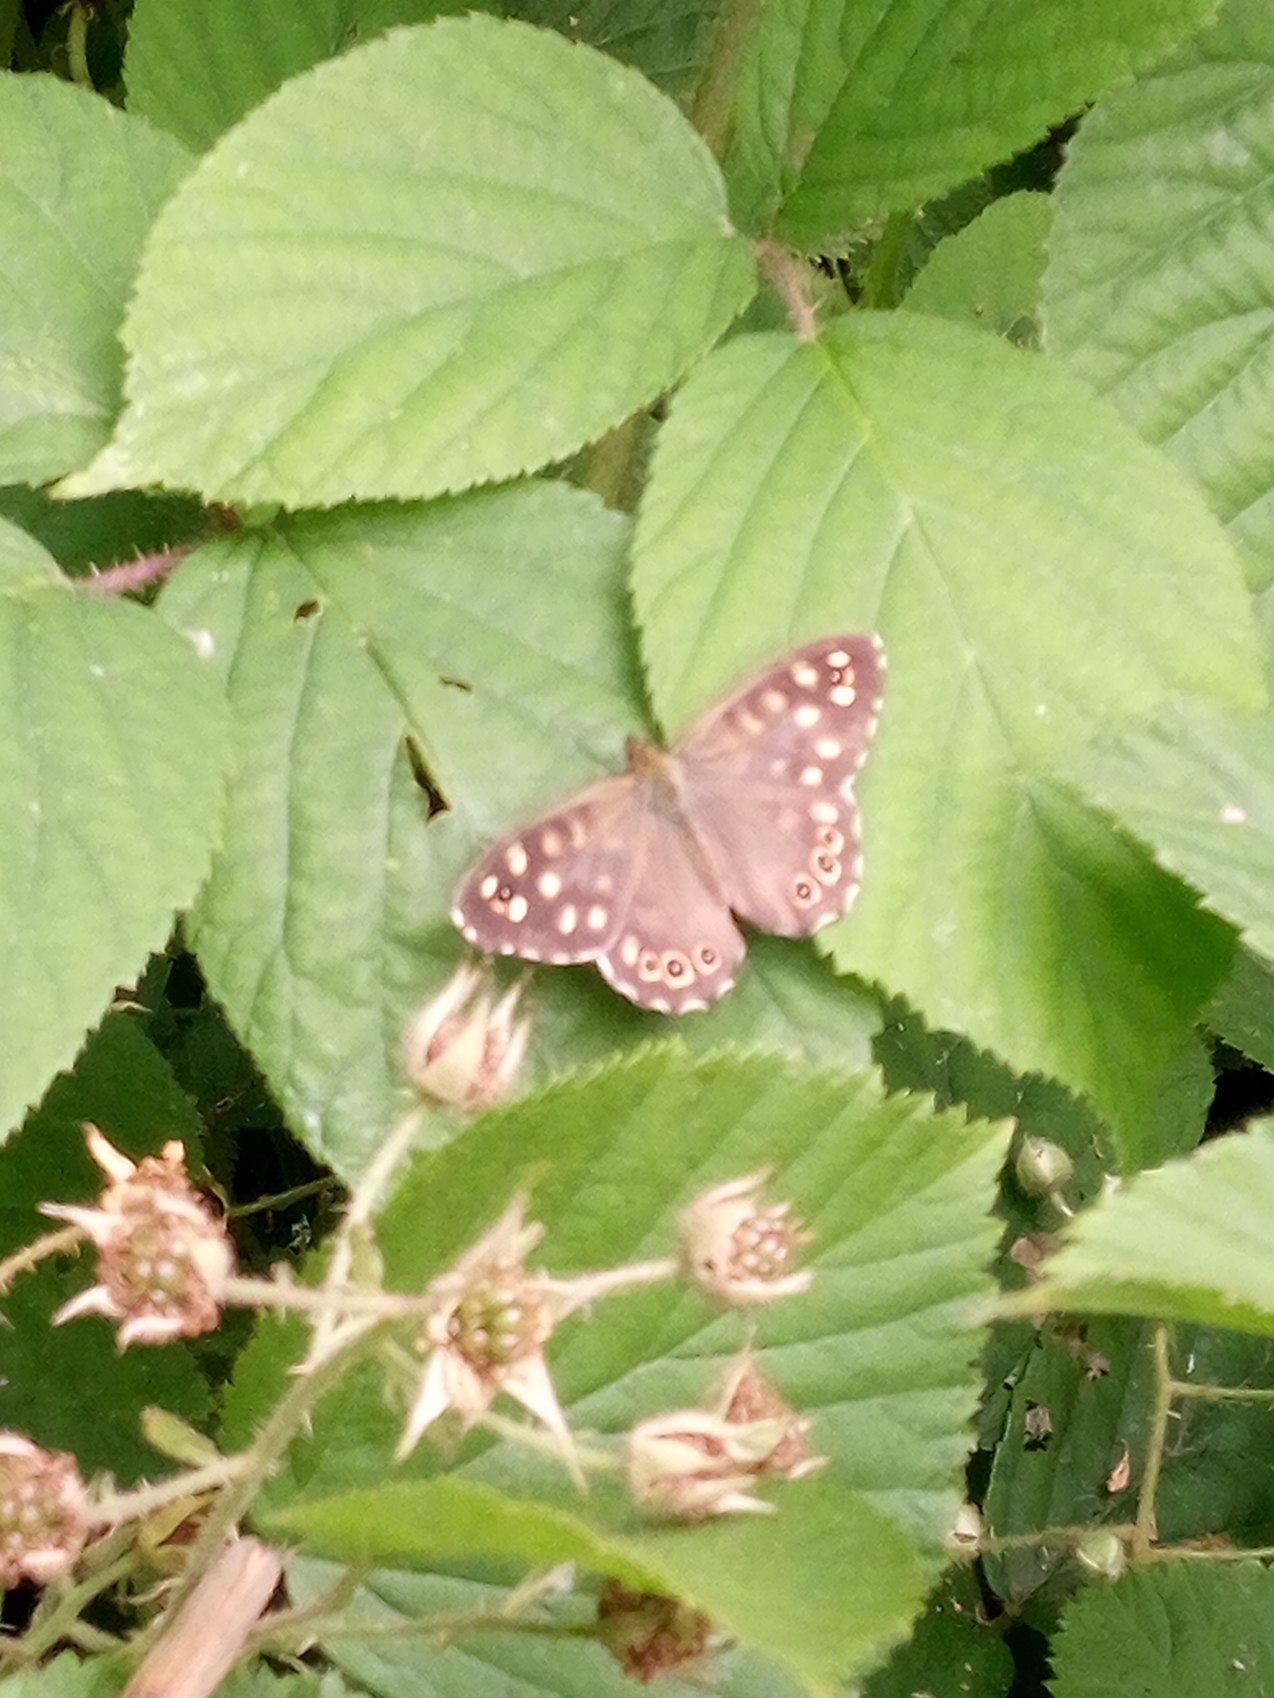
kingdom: Animalia
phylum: Arthropoda
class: Insecta
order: Lepidoptera
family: Nymphalidae
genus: Pararge
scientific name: Pararge aegeria
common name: Skovrandøje
